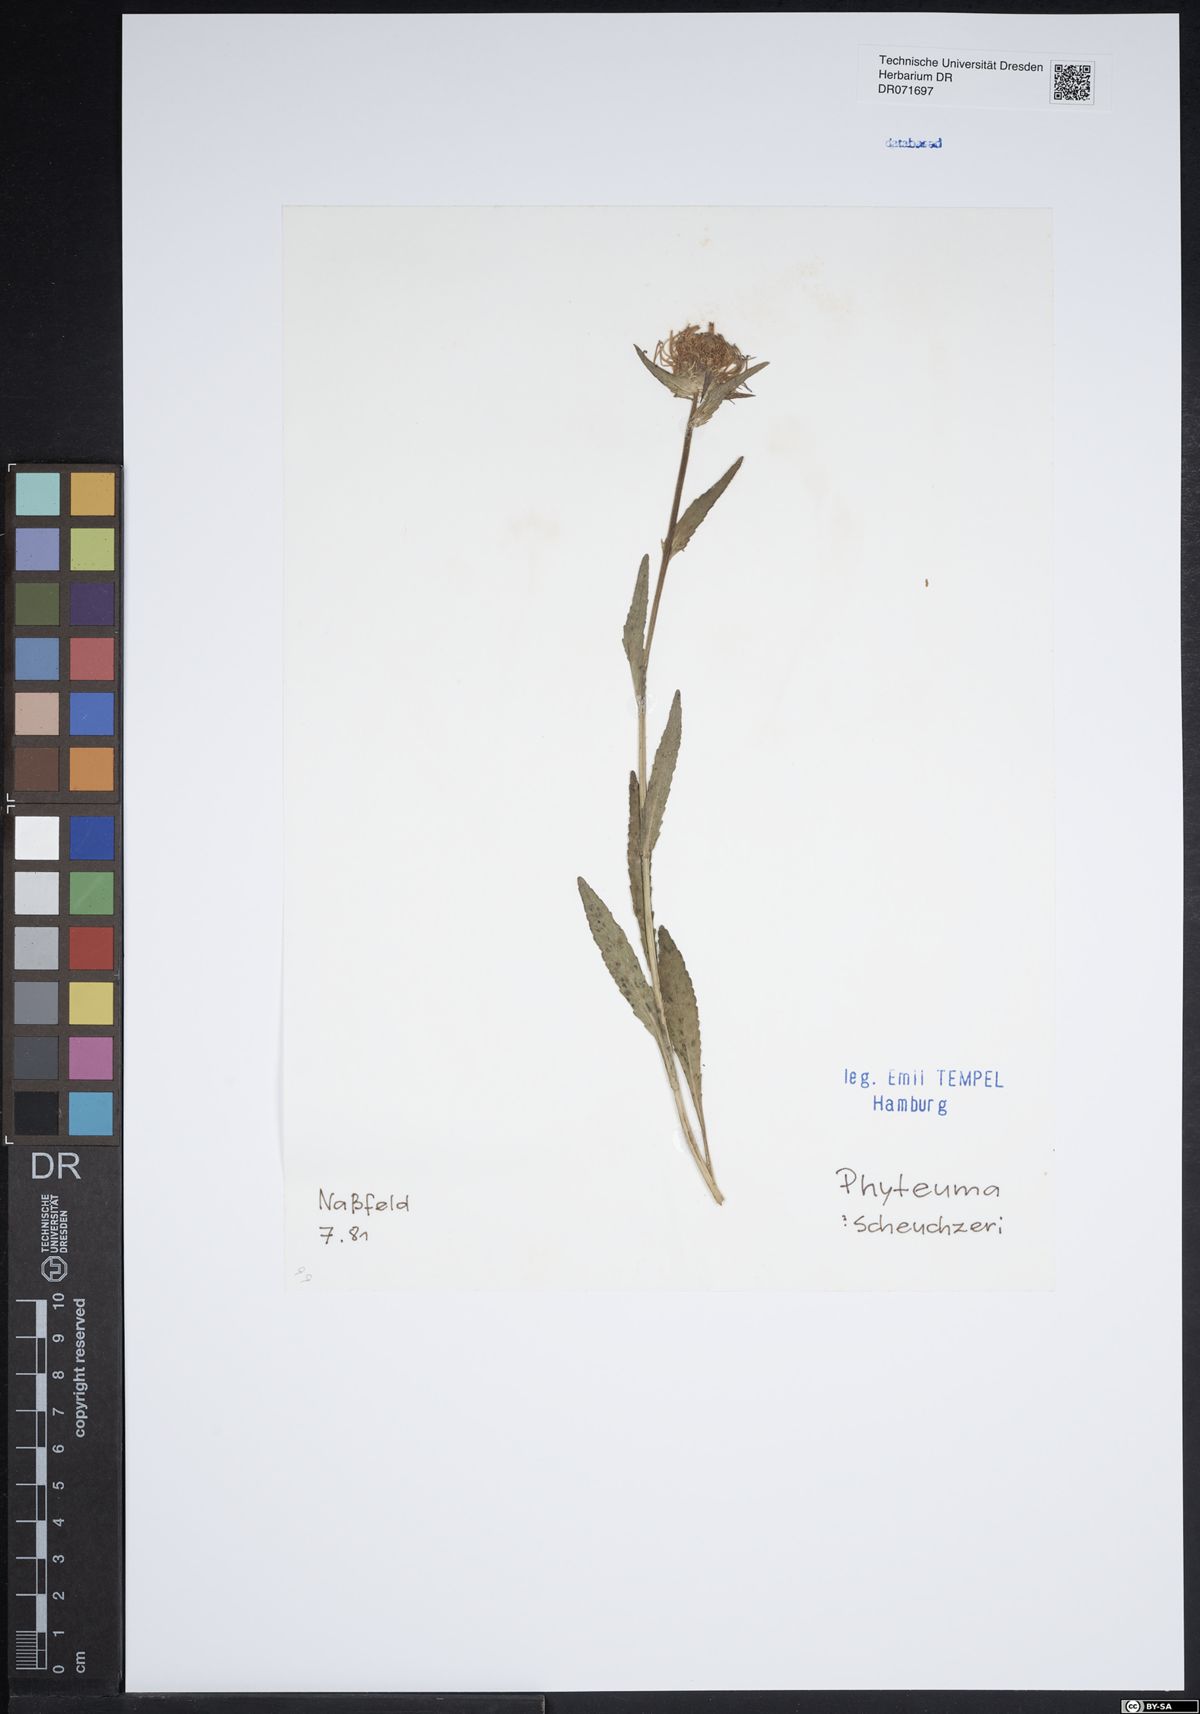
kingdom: Plantae
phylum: Tracheophyta
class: Magnoliopsida
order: Asterales
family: Campanulaceae
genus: Phyteuma
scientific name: Phyteuma scheuchzeri
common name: Oxford rampion
